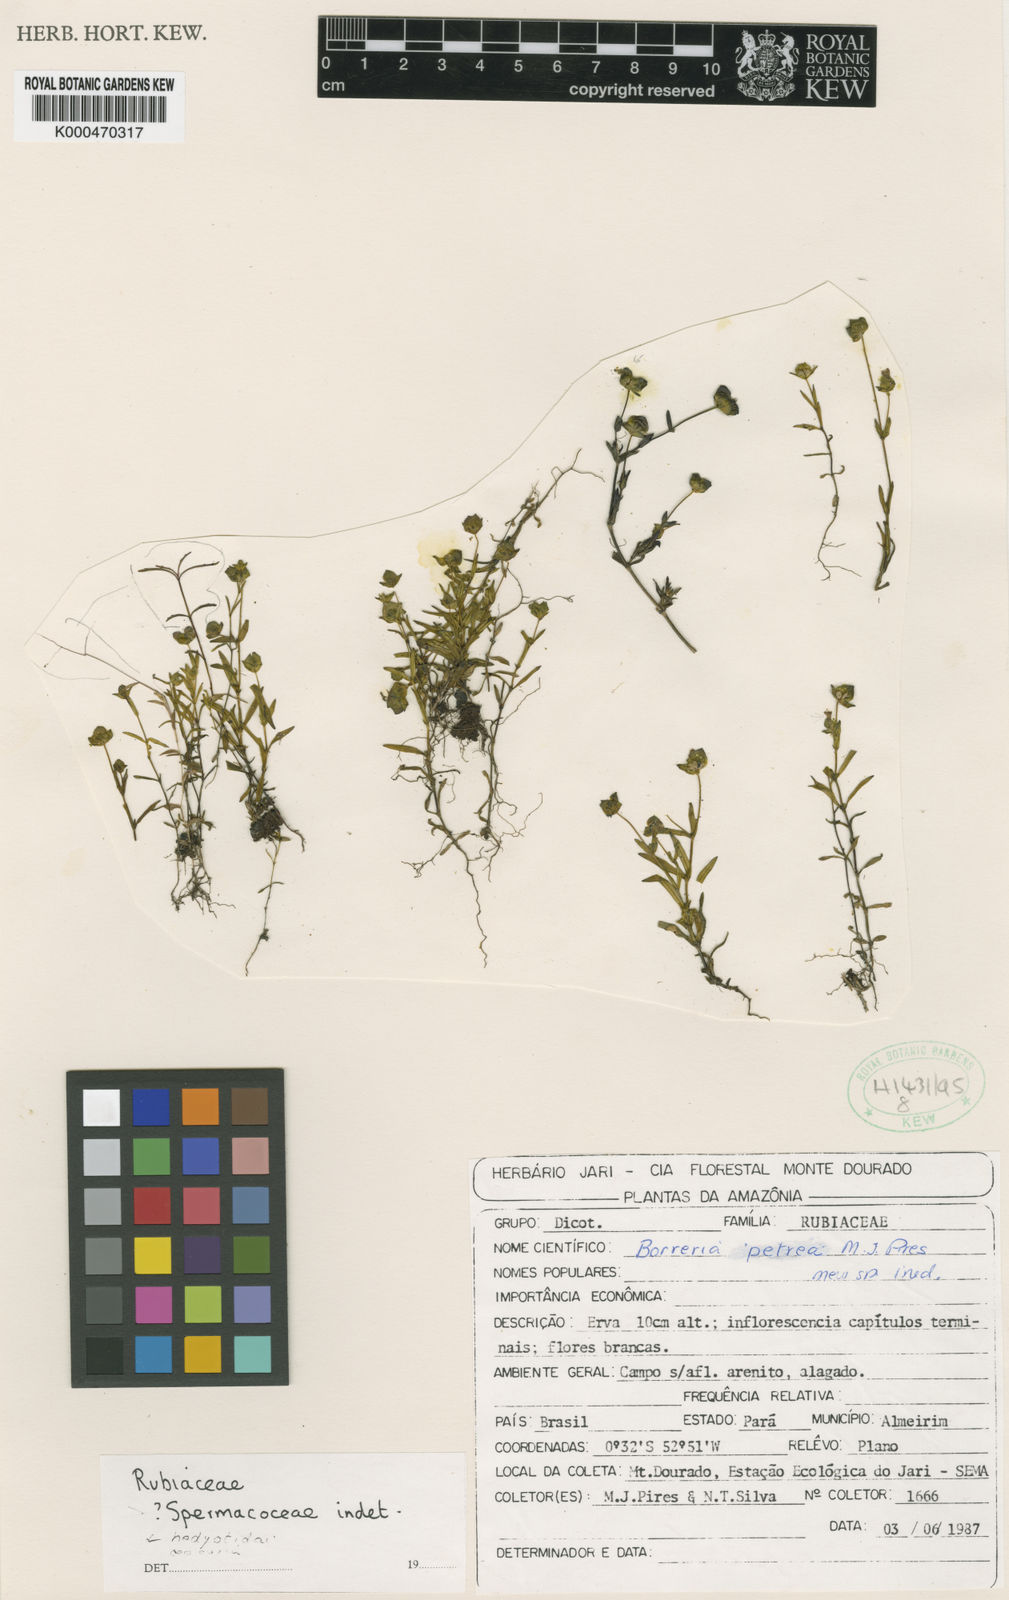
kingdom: Plantae
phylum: Tracheophyta
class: Magnoliopsida
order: Gentianales
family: Rubiaceae
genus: Spermacoce
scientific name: Spermacoce petraea
